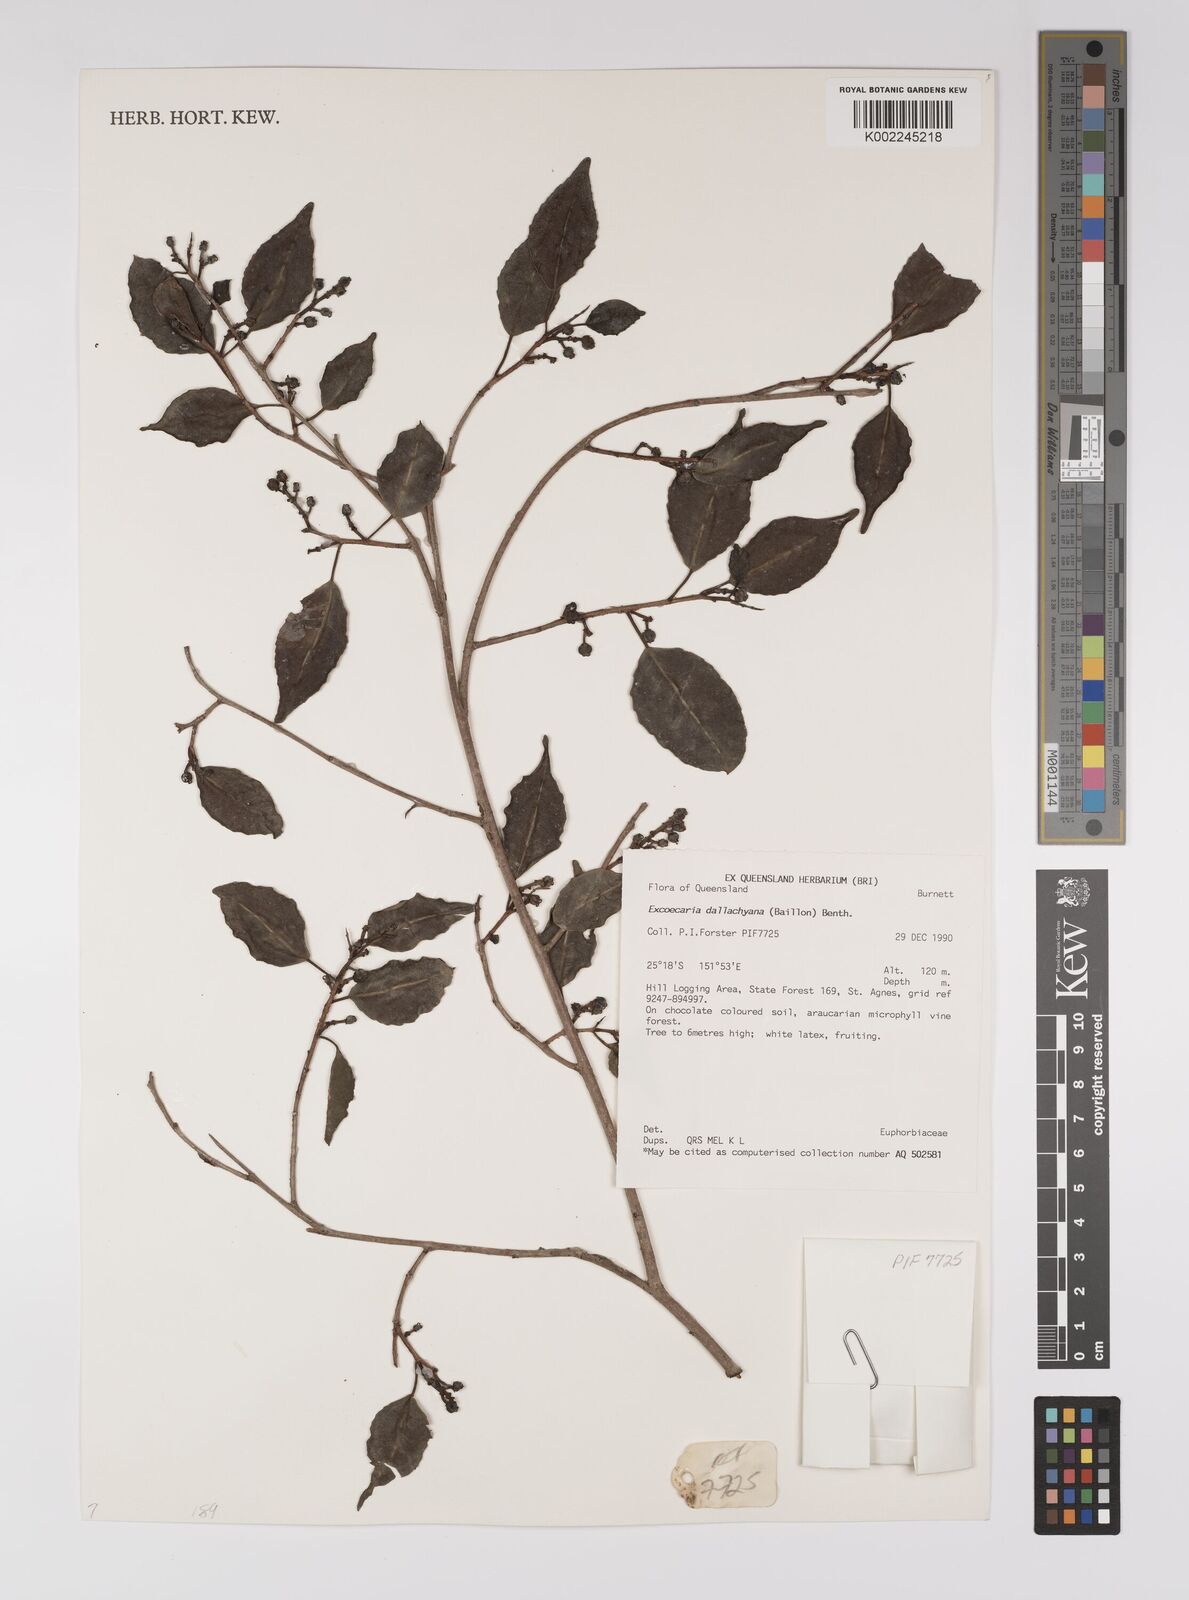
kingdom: Plantae
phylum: Tracheophyta
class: Magnoliopsida
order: Malpighiales
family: Euphorbiaceae
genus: Excoecaria
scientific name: Excoecaria dallachyana
